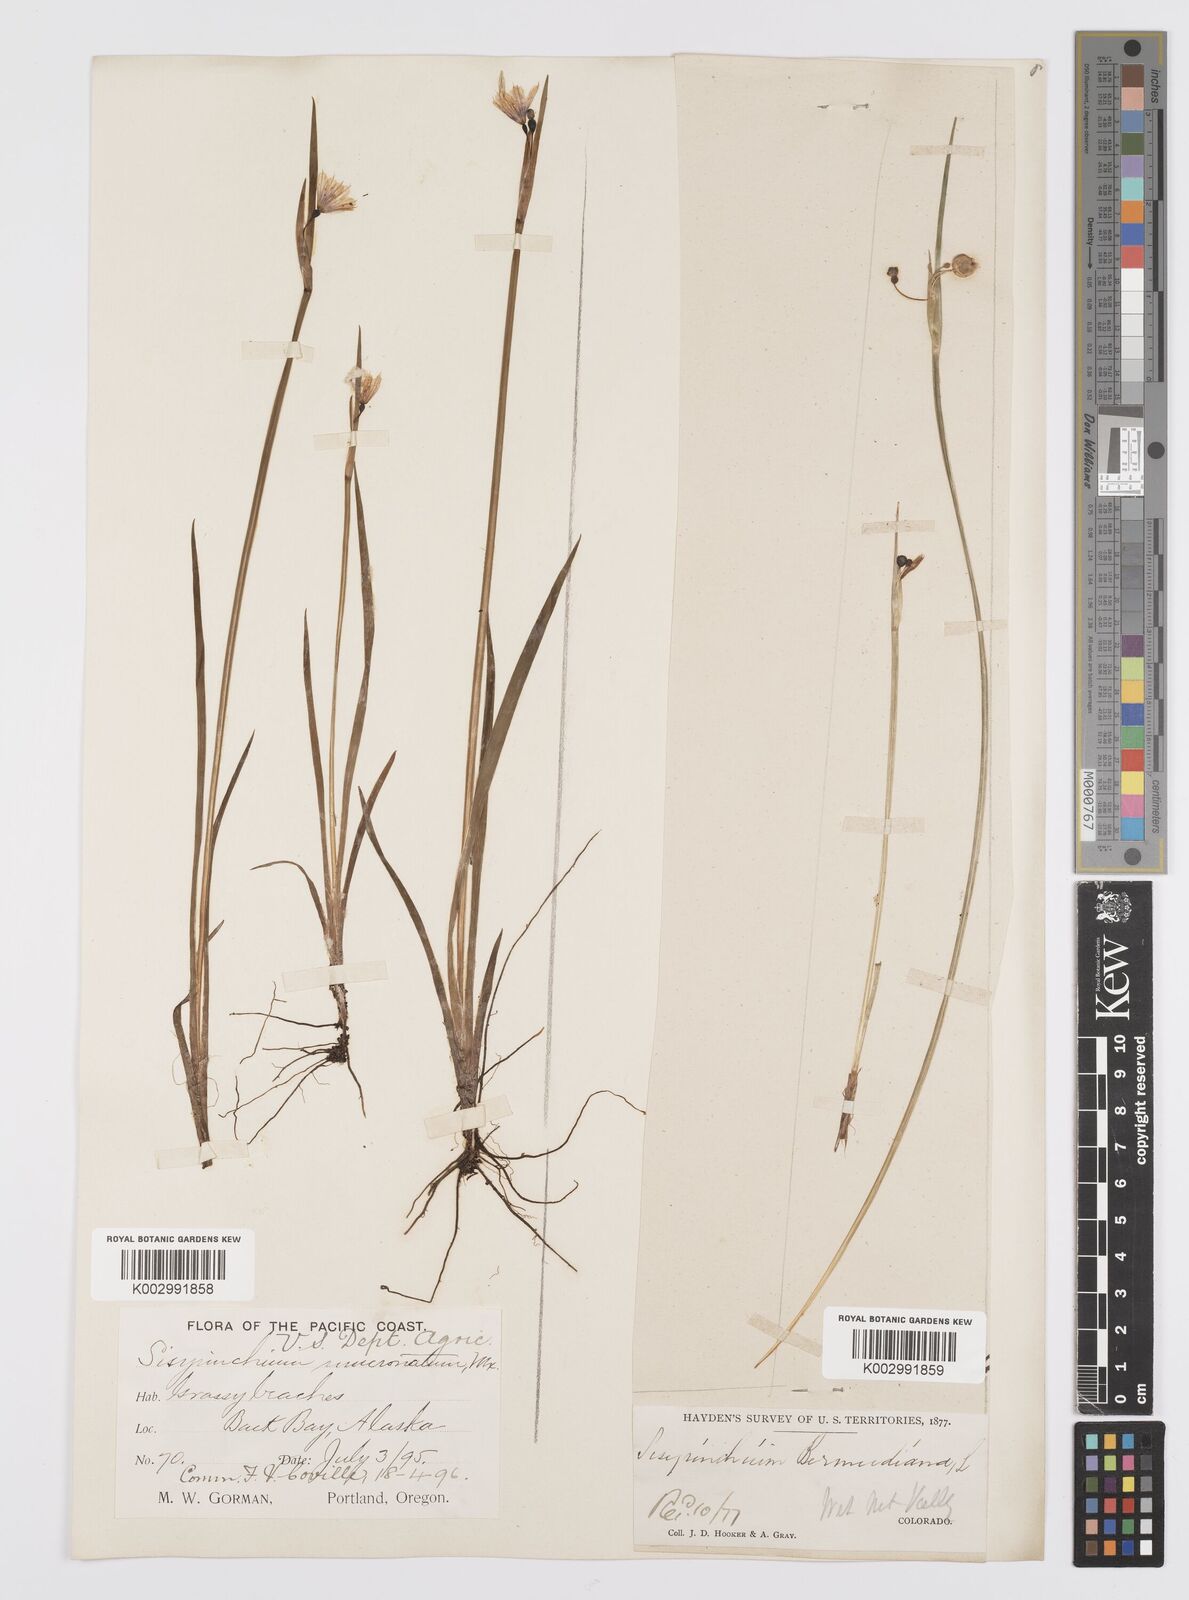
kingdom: Plantae
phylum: Tracheophyta
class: Liliopsida
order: Asparagales
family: Iridaceae
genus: Sisyrinchium
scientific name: Sisyrinchium bermudiana
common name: Blue-eyed-grass
